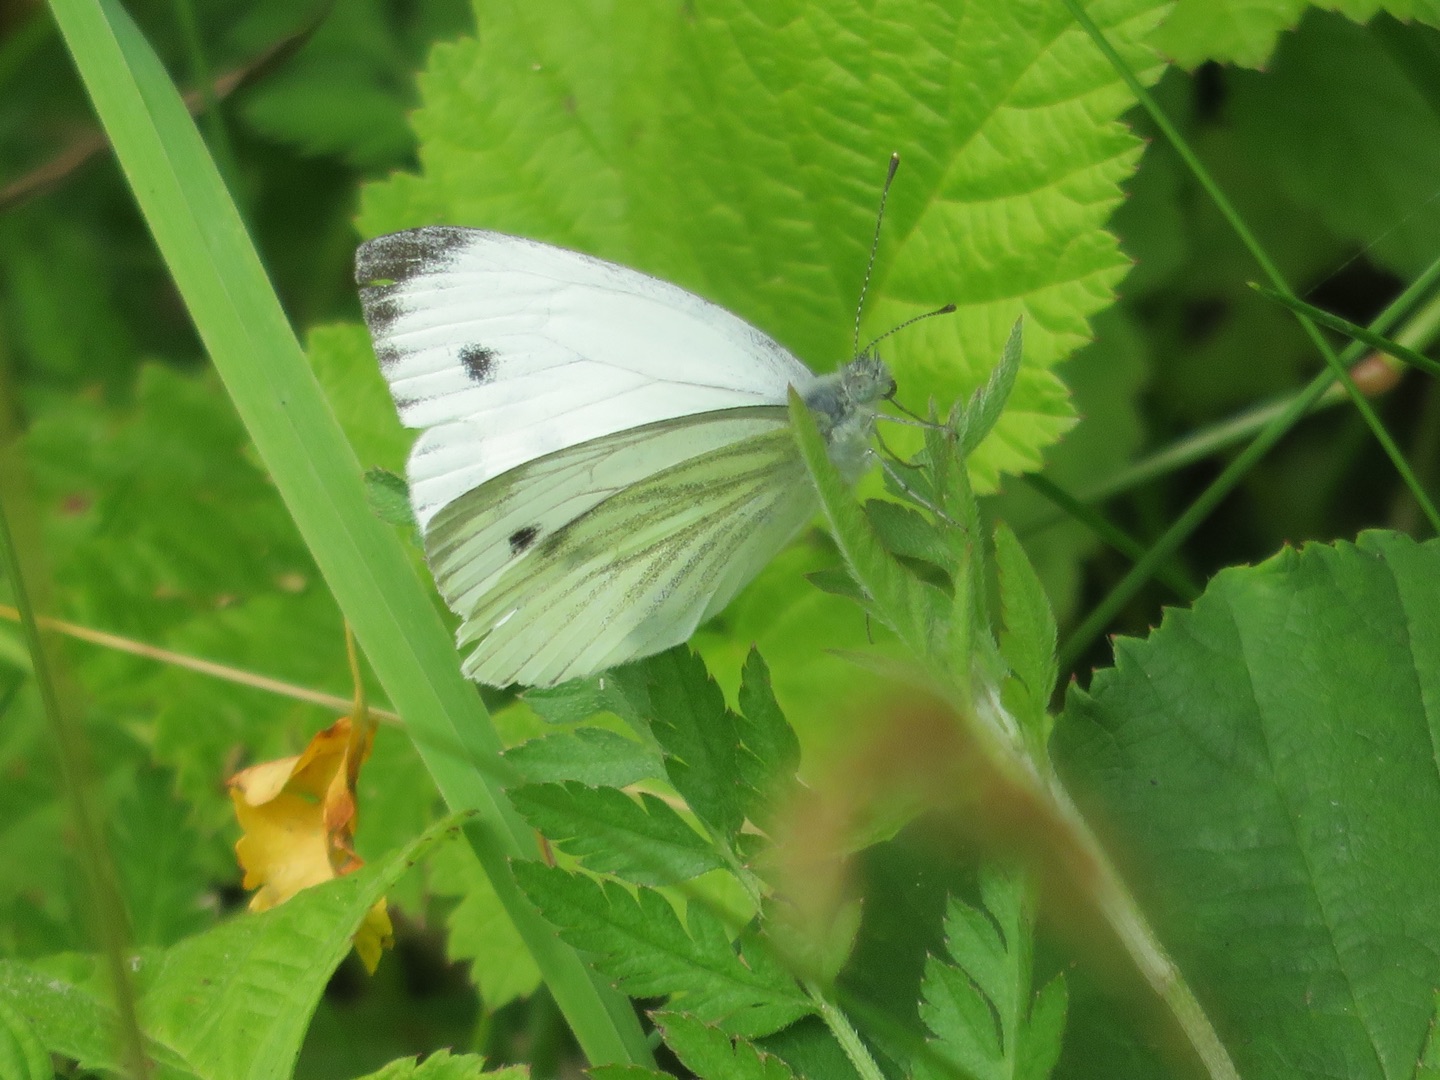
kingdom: Animalia
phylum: Arthropoda
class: Insecta
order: Lepidoptera
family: Pieridae
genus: Pieris
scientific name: Pieris napi
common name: Grønåret kålsommerfugl
